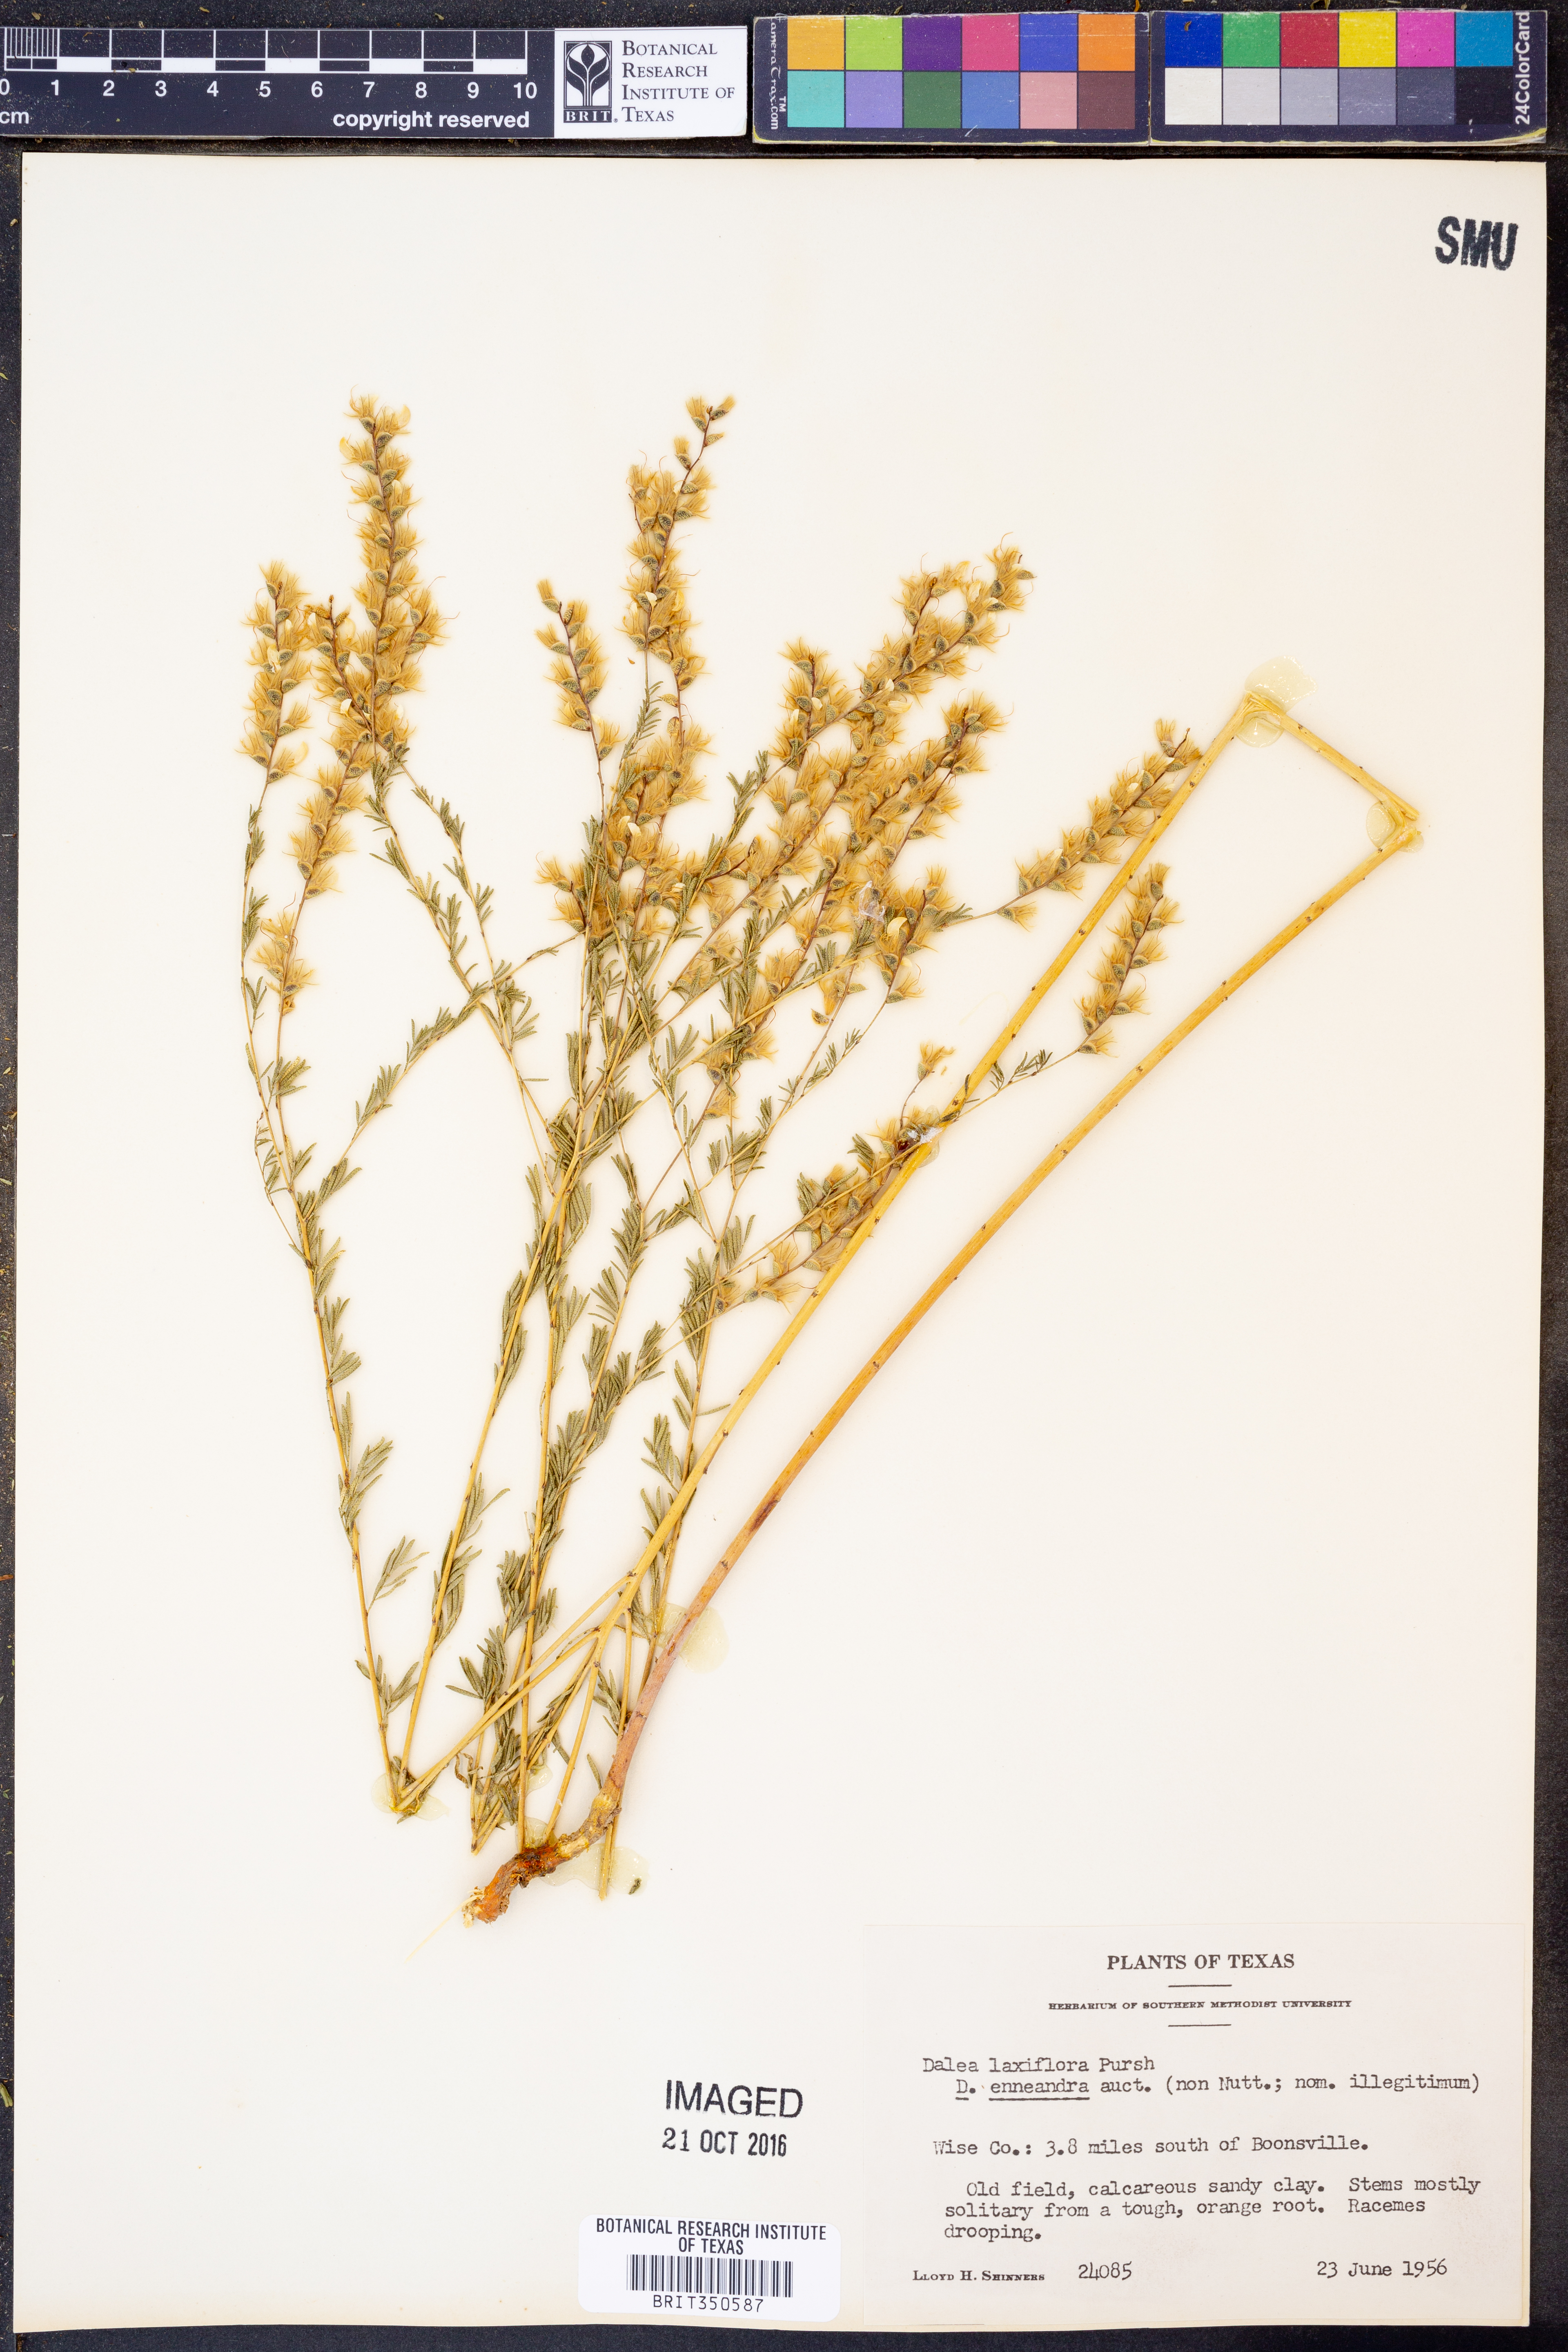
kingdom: Plantae
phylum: Tracheophyta
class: Magnoliopsida
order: Fabales
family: Fabaceae
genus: Dalea
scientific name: Dalea hegewischiana
